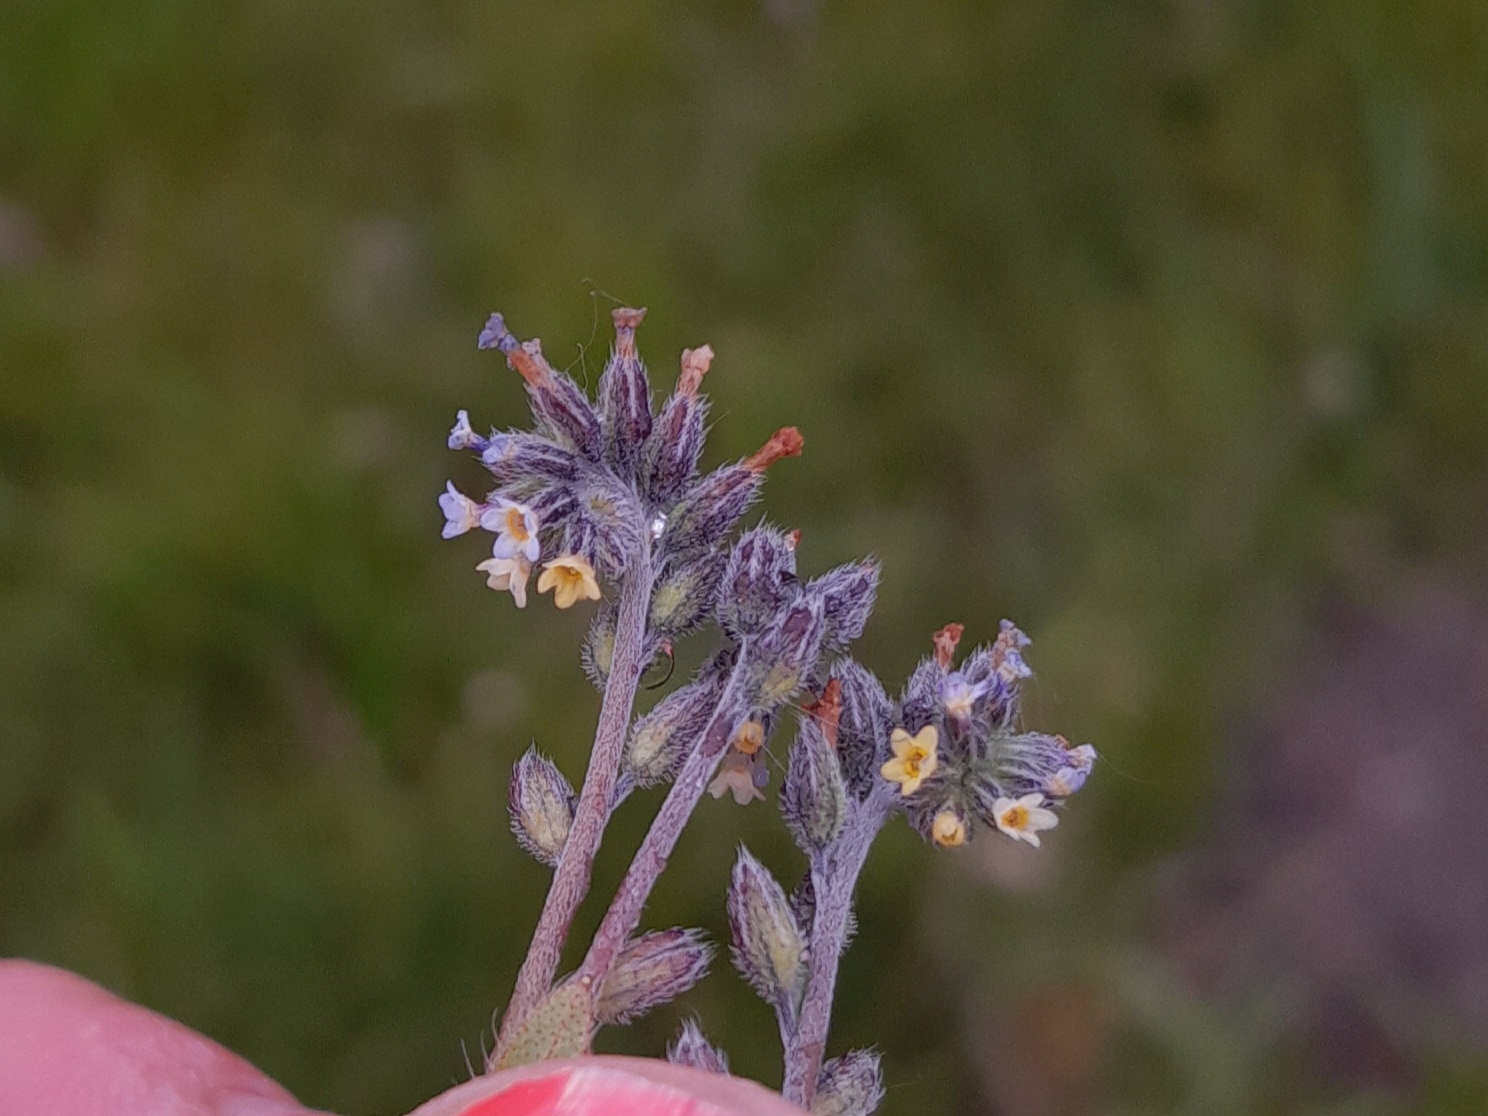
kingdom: Plantae
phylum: Tracheophyta
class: Magnoliopsida
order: Boraginales
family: Boraginaceae
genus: Myosotis
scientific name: Myosotis discolor
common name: Forskelligfarvet forglemmigej
